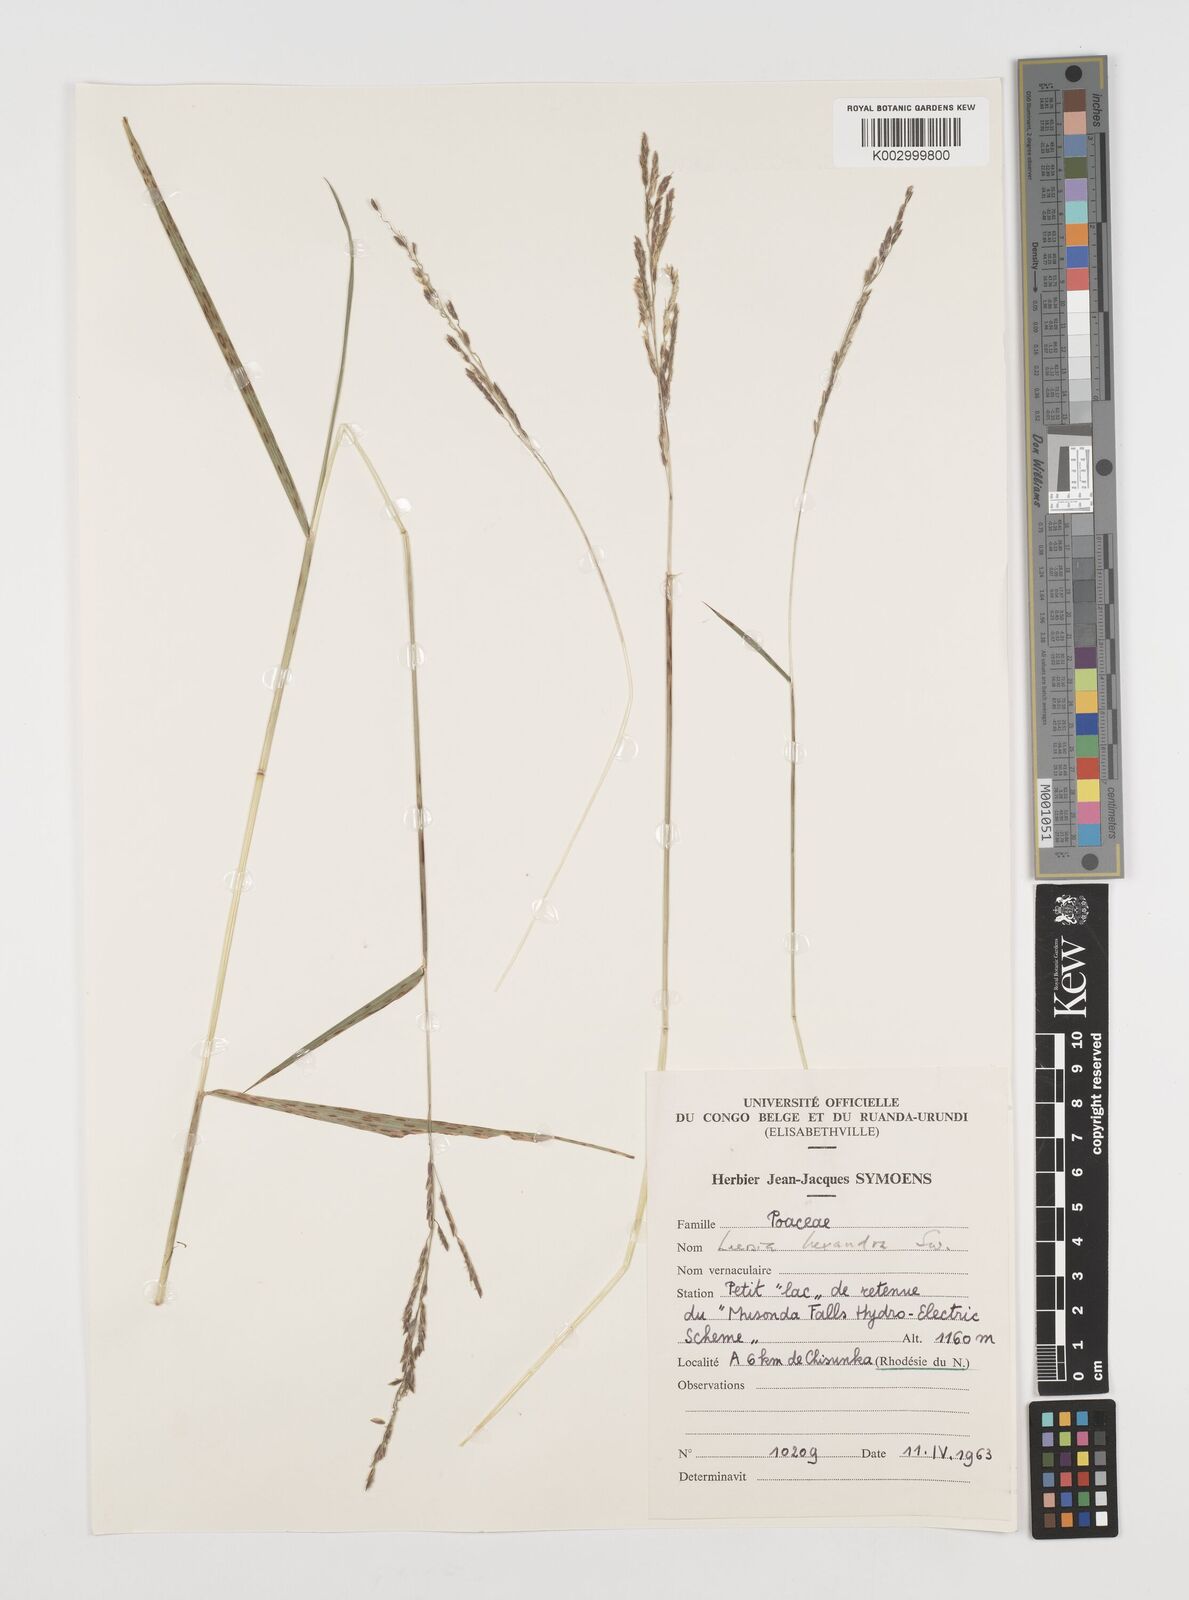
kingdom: Plantae
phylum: Tracheophyta
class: Liliopsida
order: Poales
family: Poaceae
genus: Leersia
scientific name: Leersia hexandra
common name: Southern cut grass
